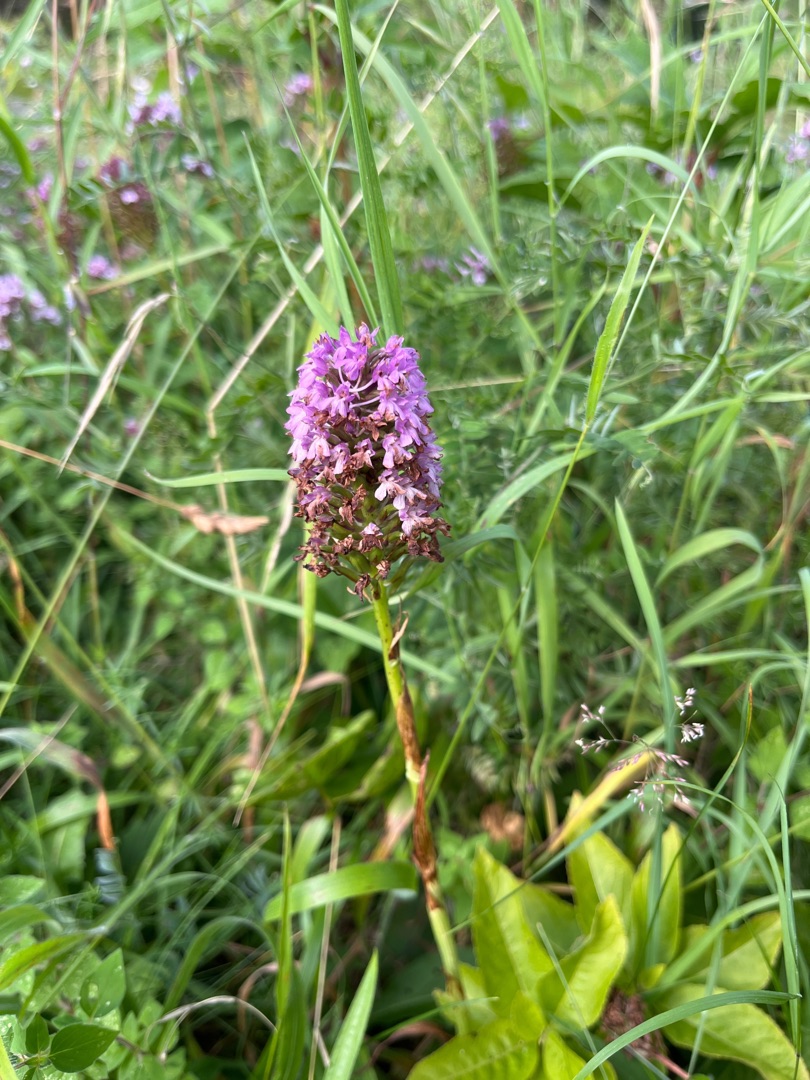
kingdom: Plantae
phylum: Tracheophyta
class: Liliopsida
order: Asparagales
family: Orchidaceae
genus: Anacamptis
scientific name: Anacamptis pyramidalis
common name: Horndrager
